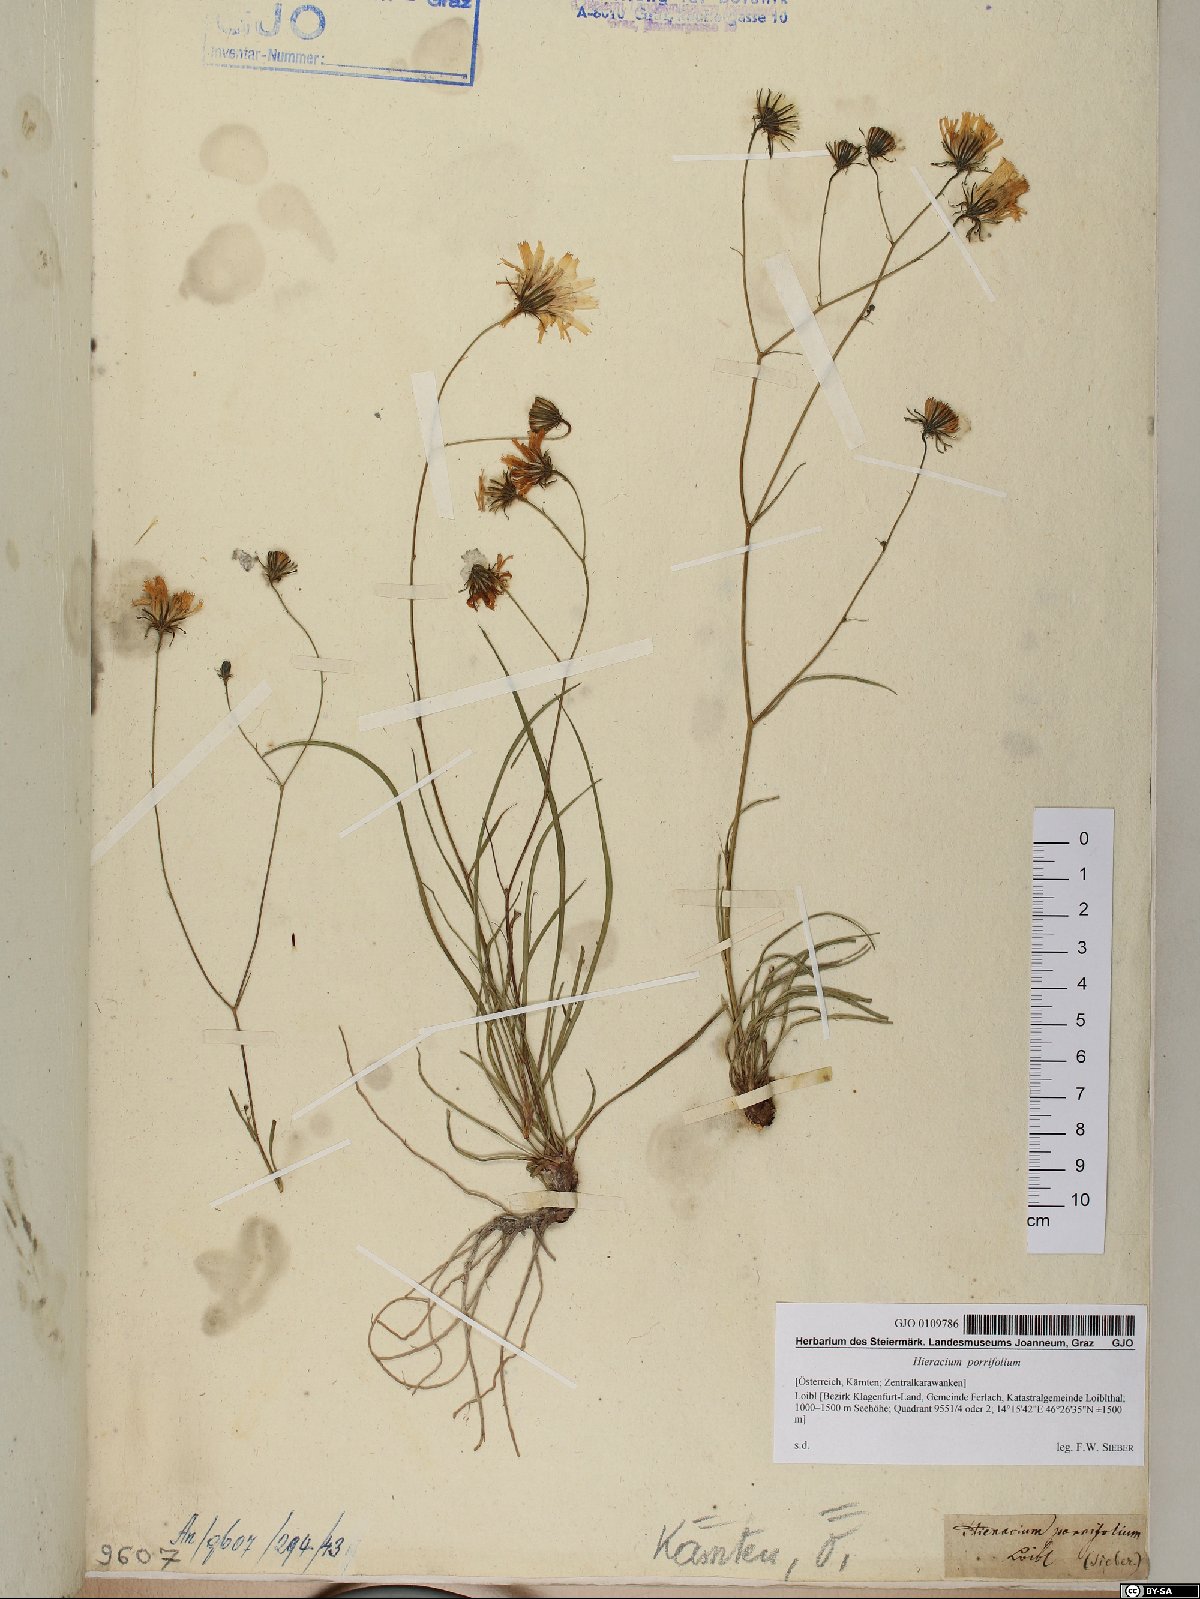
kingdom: Plantae
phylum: Tracheophyta
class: Magnoliopsida
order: Asterales
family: Asteraceae
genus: Hieracium
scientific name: Hieracium porrifolium
